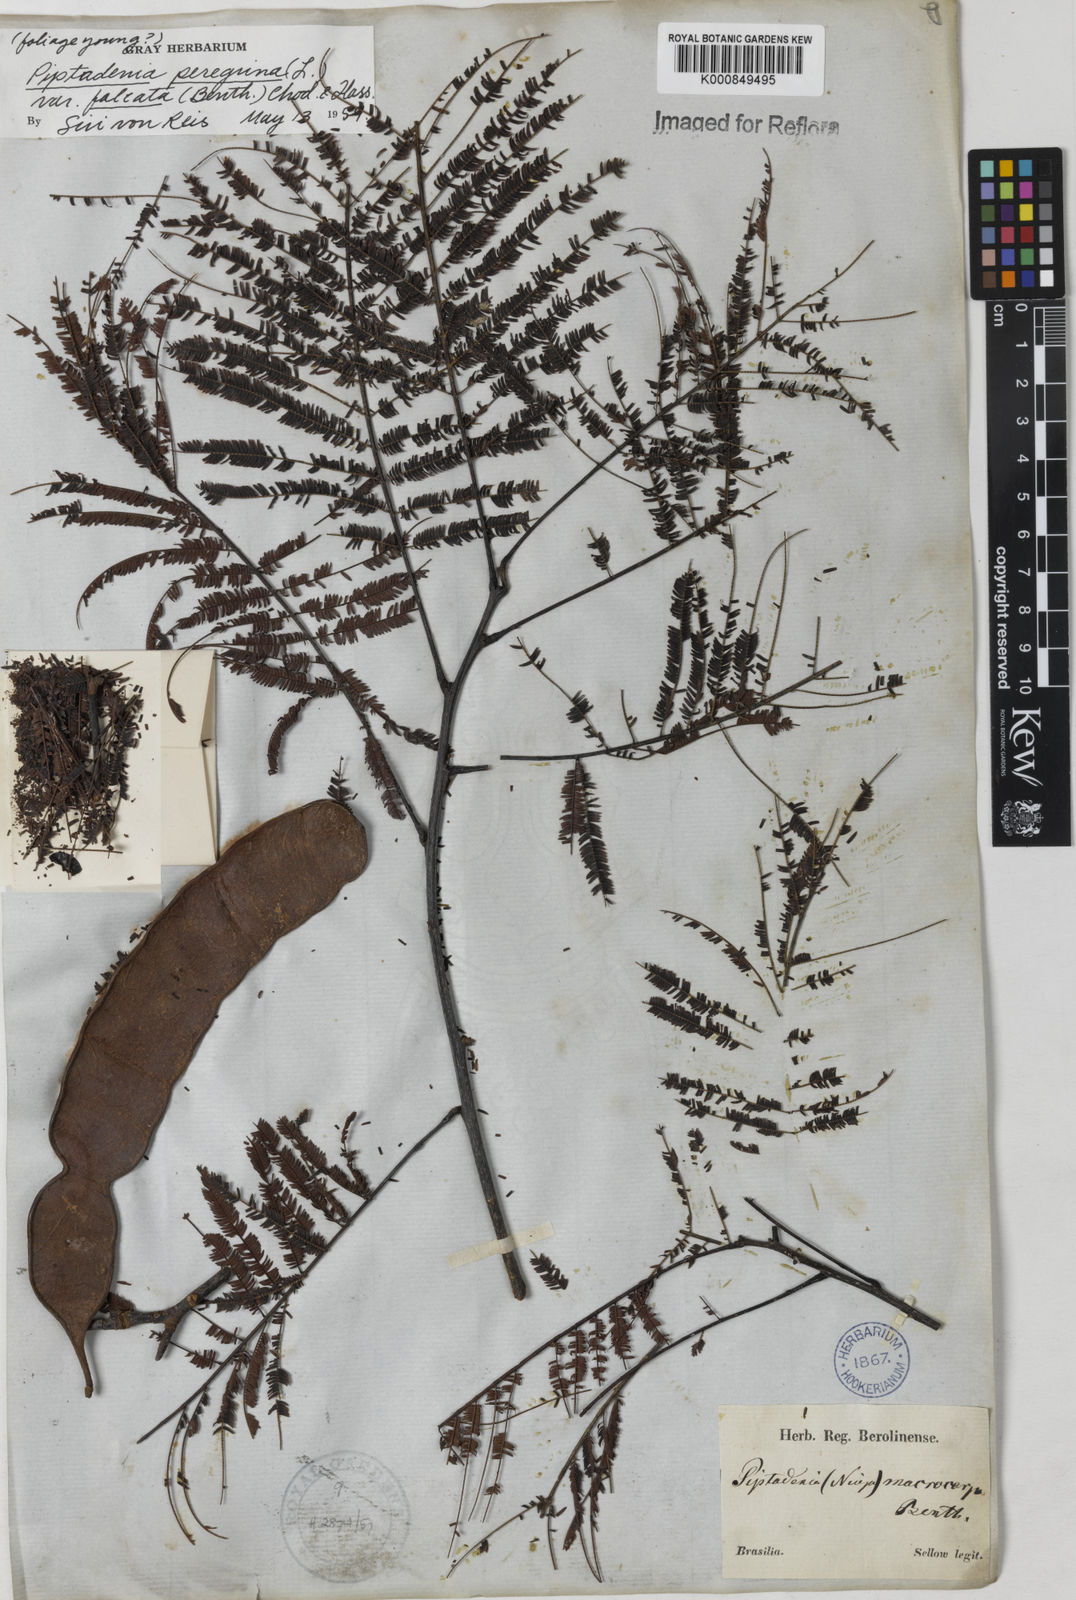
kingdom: Plantae
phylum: Tracheophyta
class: Magnoliopsida
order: Fabales
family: Fabaceae
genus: Anadenanthera
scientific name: Anadenanthera peregrina
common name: Cohoba
